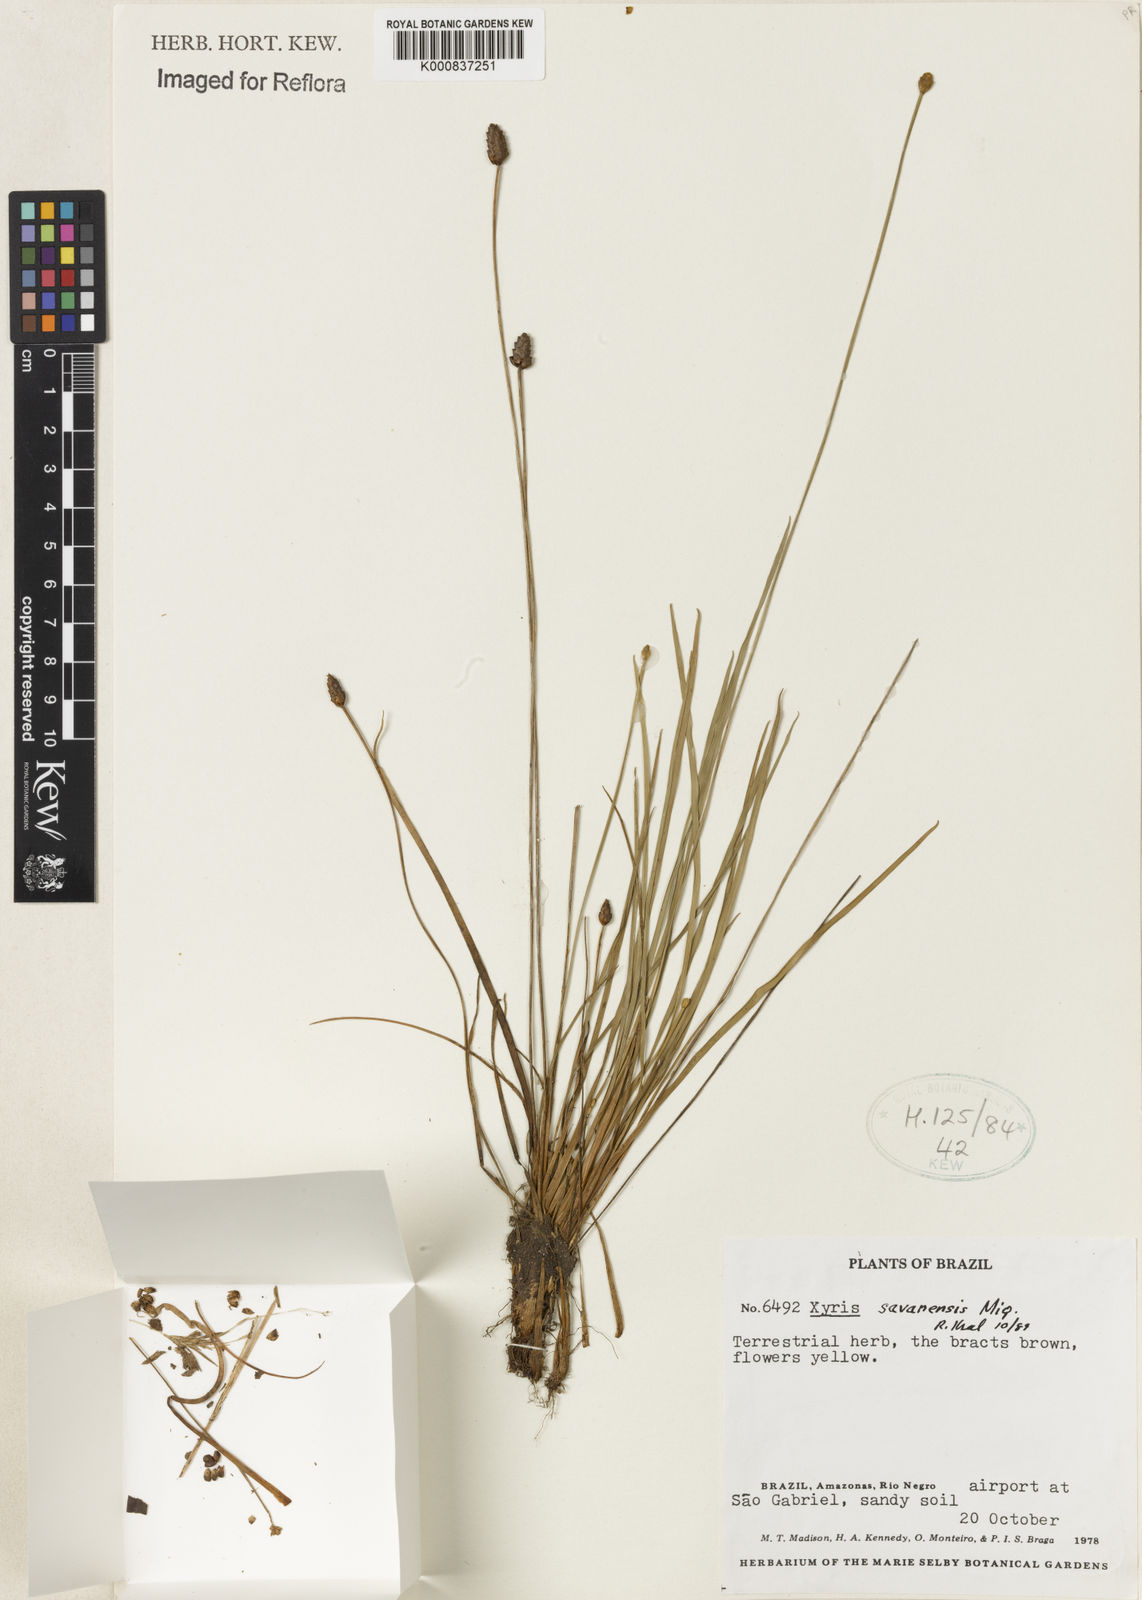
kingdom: Plantae
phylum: Tracheophyta
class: Liliopsida
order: Poales
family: Xyridaceae
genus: Xyris
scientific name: Xyris savanensis
